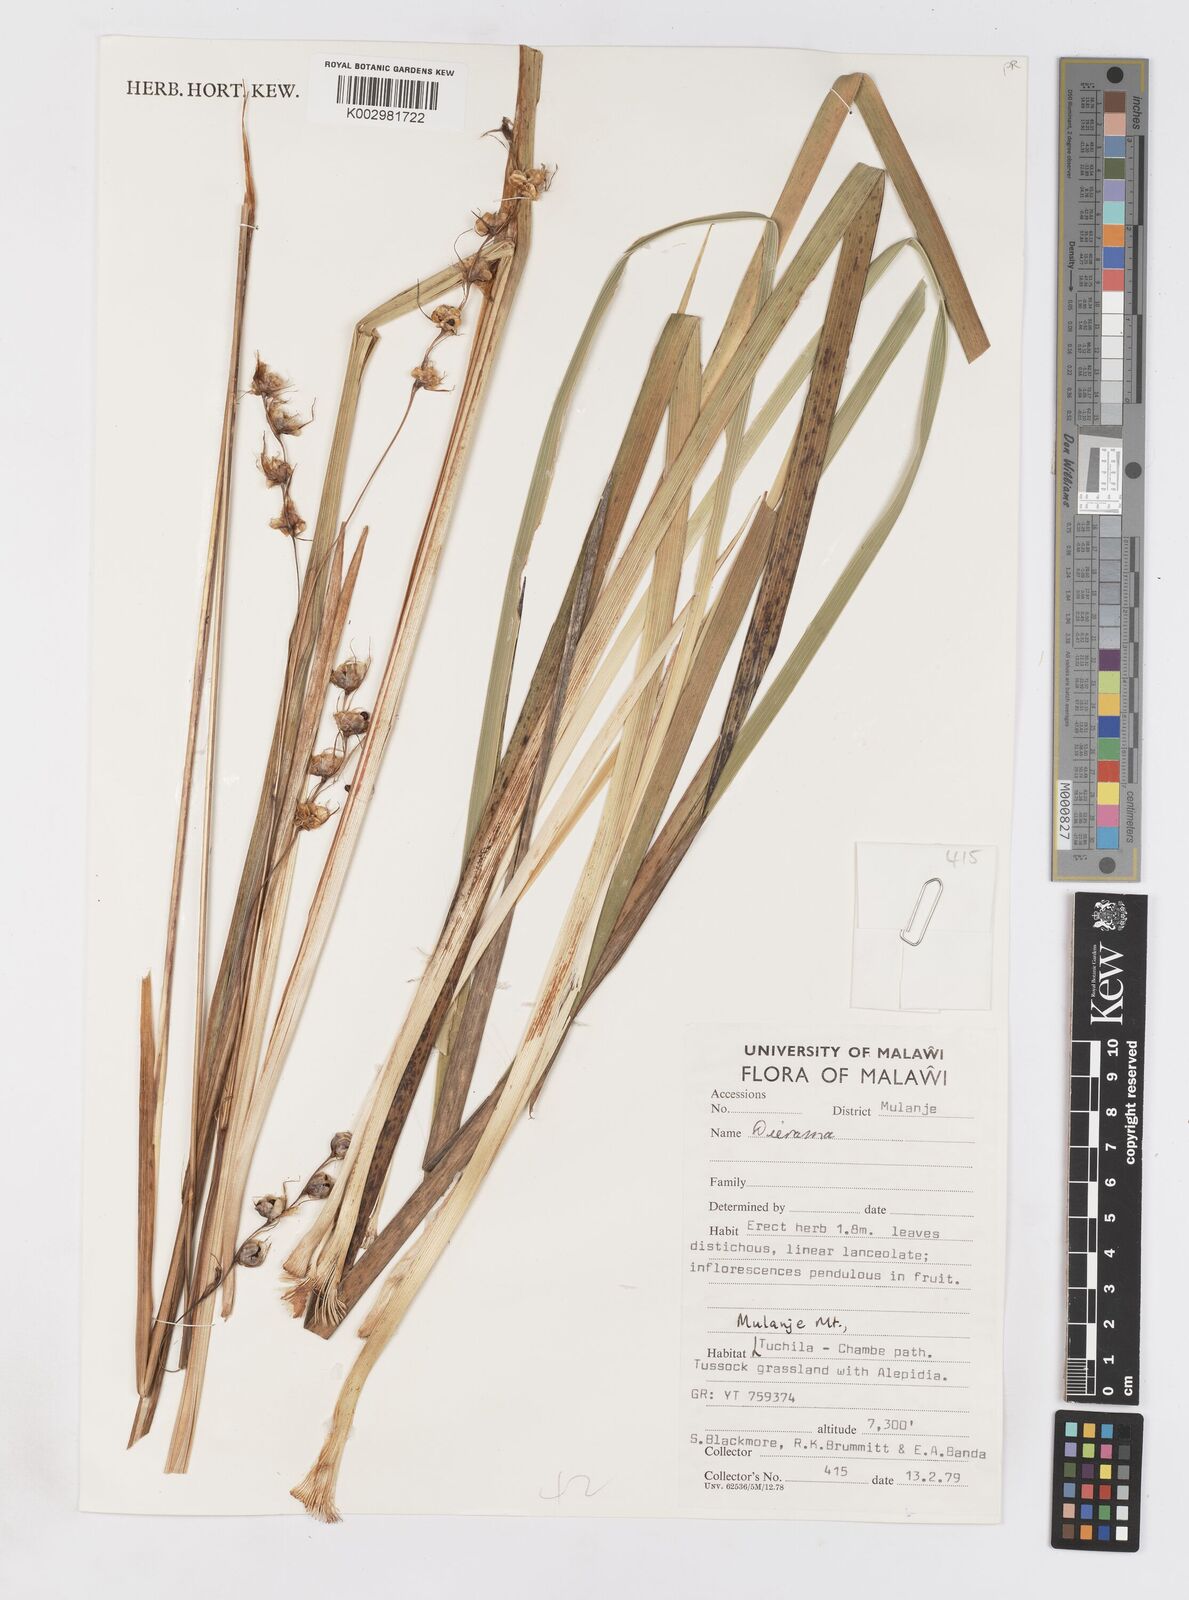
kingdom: Plantae
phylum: Tracheophyta
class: Liliopsida
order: Asparagales
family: Iridaceae
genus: Dierama
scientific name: Dierama
